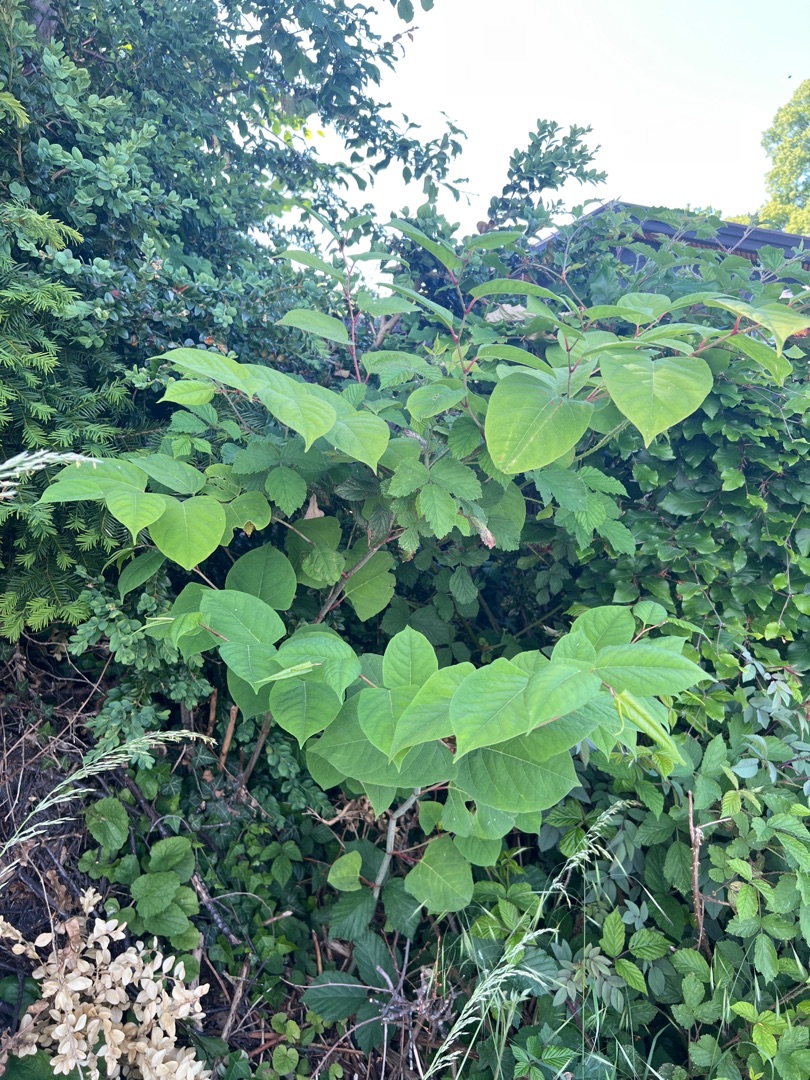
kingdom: Plantae
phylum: Tracheophyta
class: Magnoliopsida
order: Caryophyllales
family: Polygonaceae
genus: Reynoutria
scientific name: Reynoutria japonica
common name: Japan-pileurt
